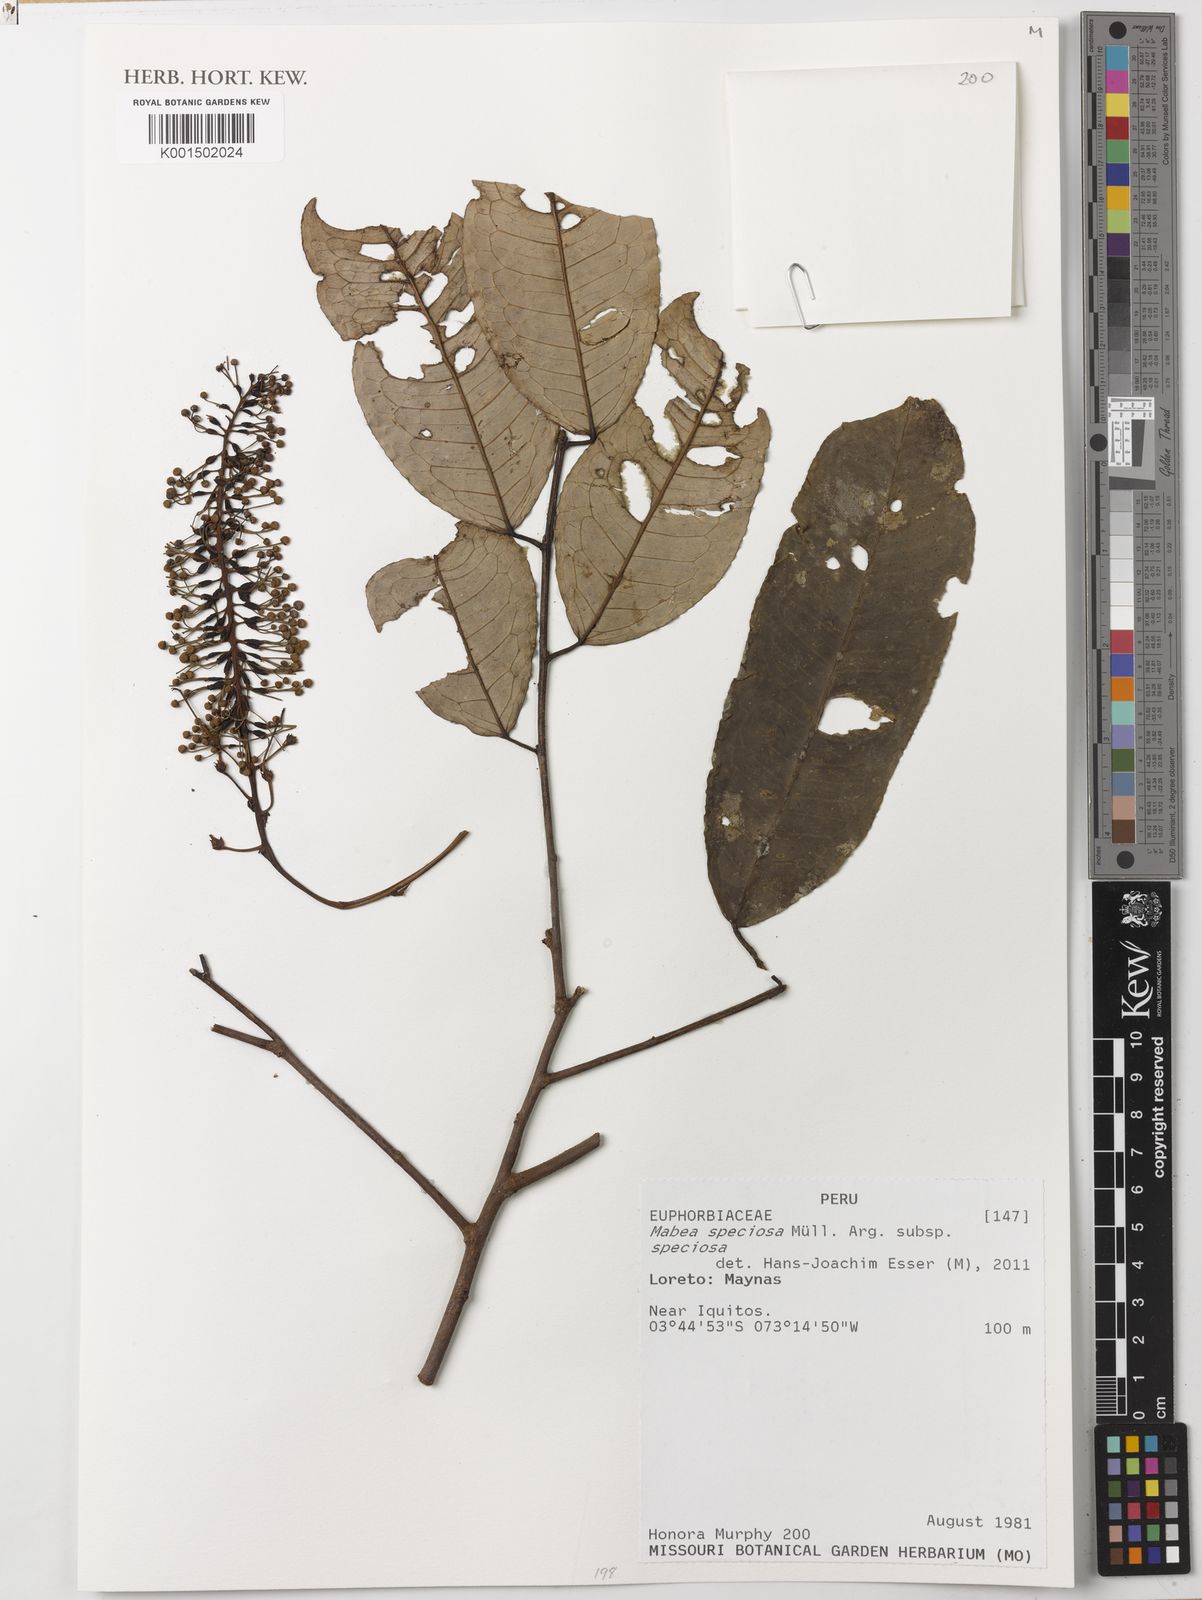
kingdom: Plantae
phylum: Tracheophyta
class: Magnoliopsida
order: Malpighiales
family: Euphorbiaceae
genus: Mabea
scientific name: Mabea speciosa
